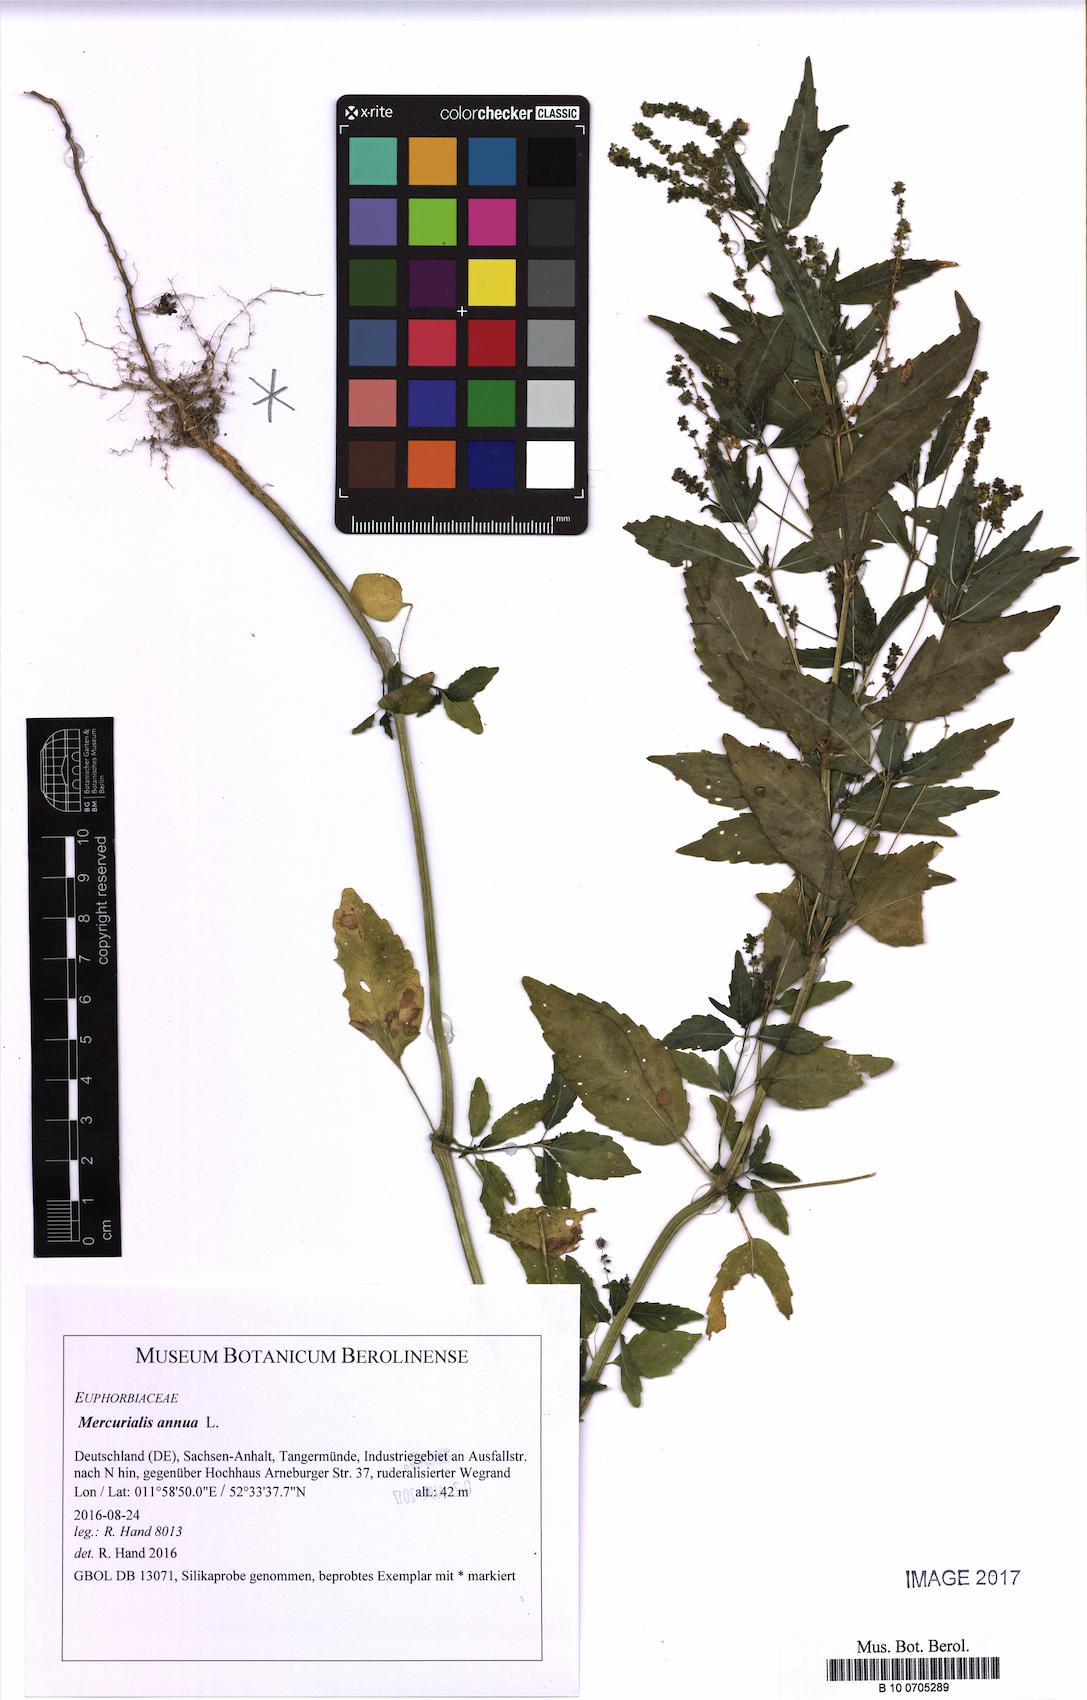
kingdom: Plantae
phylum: Tracheophyta
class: Magnoliopsida
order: Malpighiales
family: Euphorbiaceae
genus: Mercurialis
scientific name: Mercurialis annua
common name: Annual mercury
